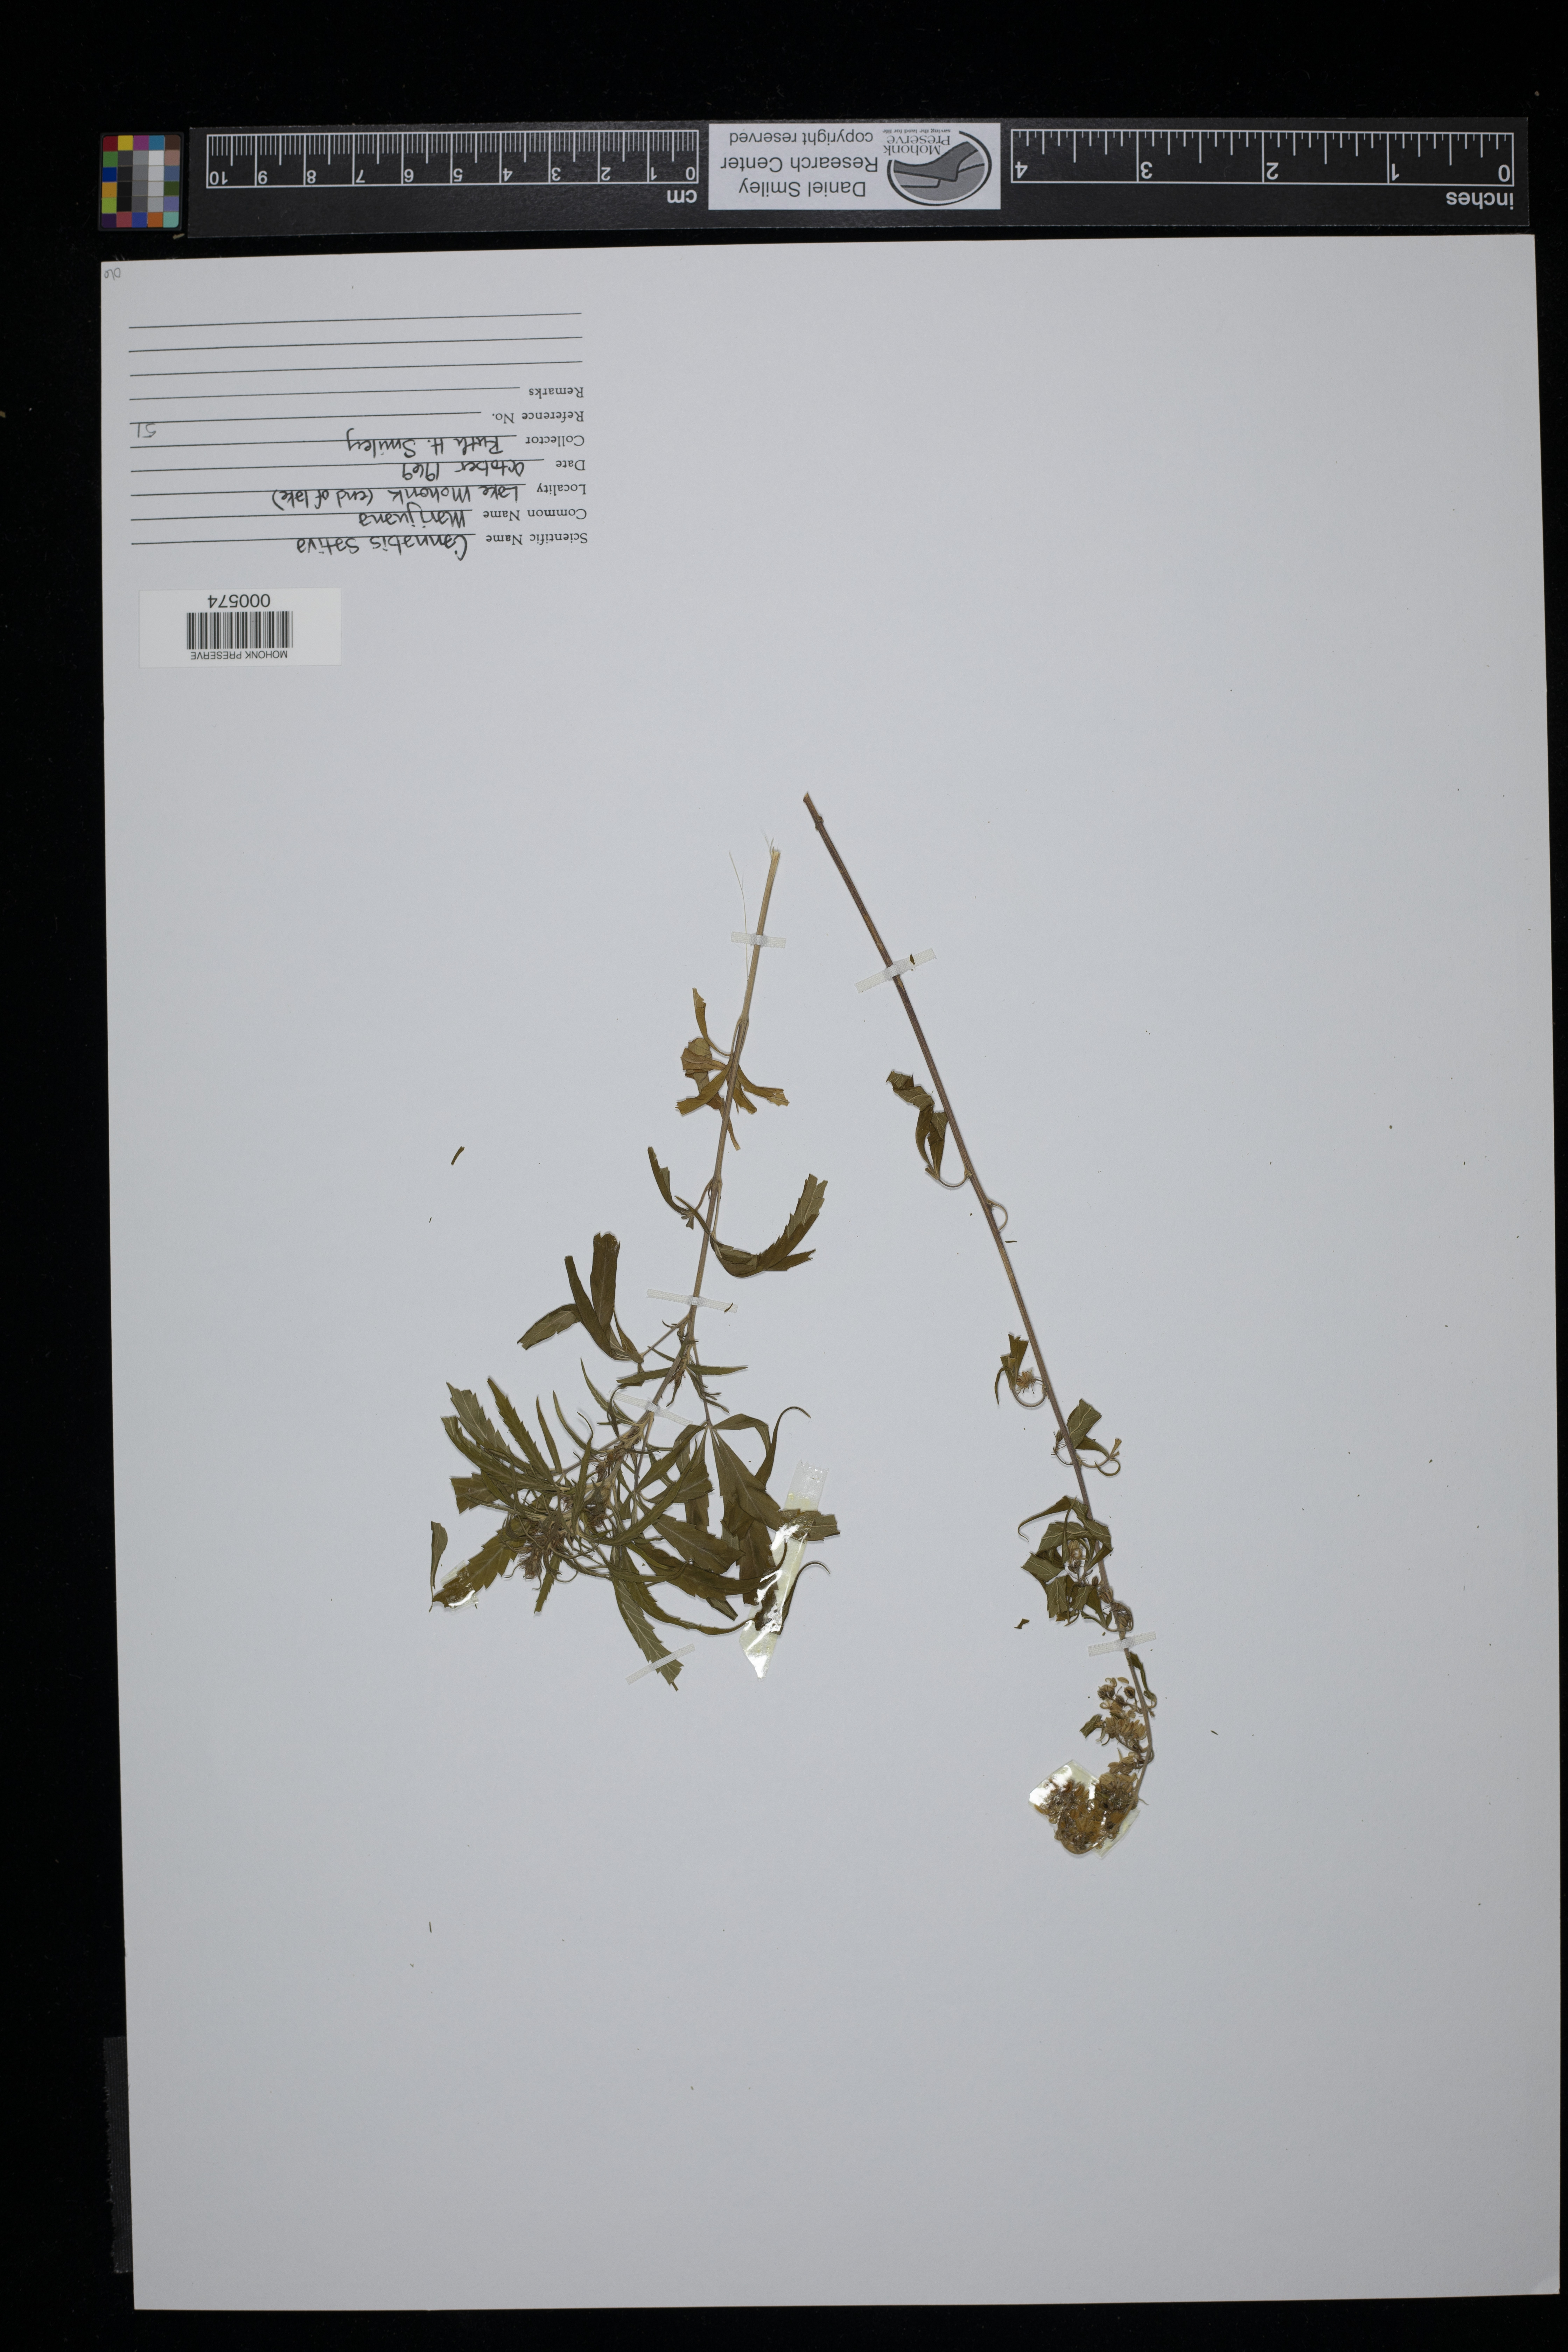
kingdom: Plantae
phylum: Tracheophyta
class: Magnoliopsida
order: Rosales
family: Cannabaceae
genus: Cannabis
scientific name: Cannabis sativa
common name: Hemp
